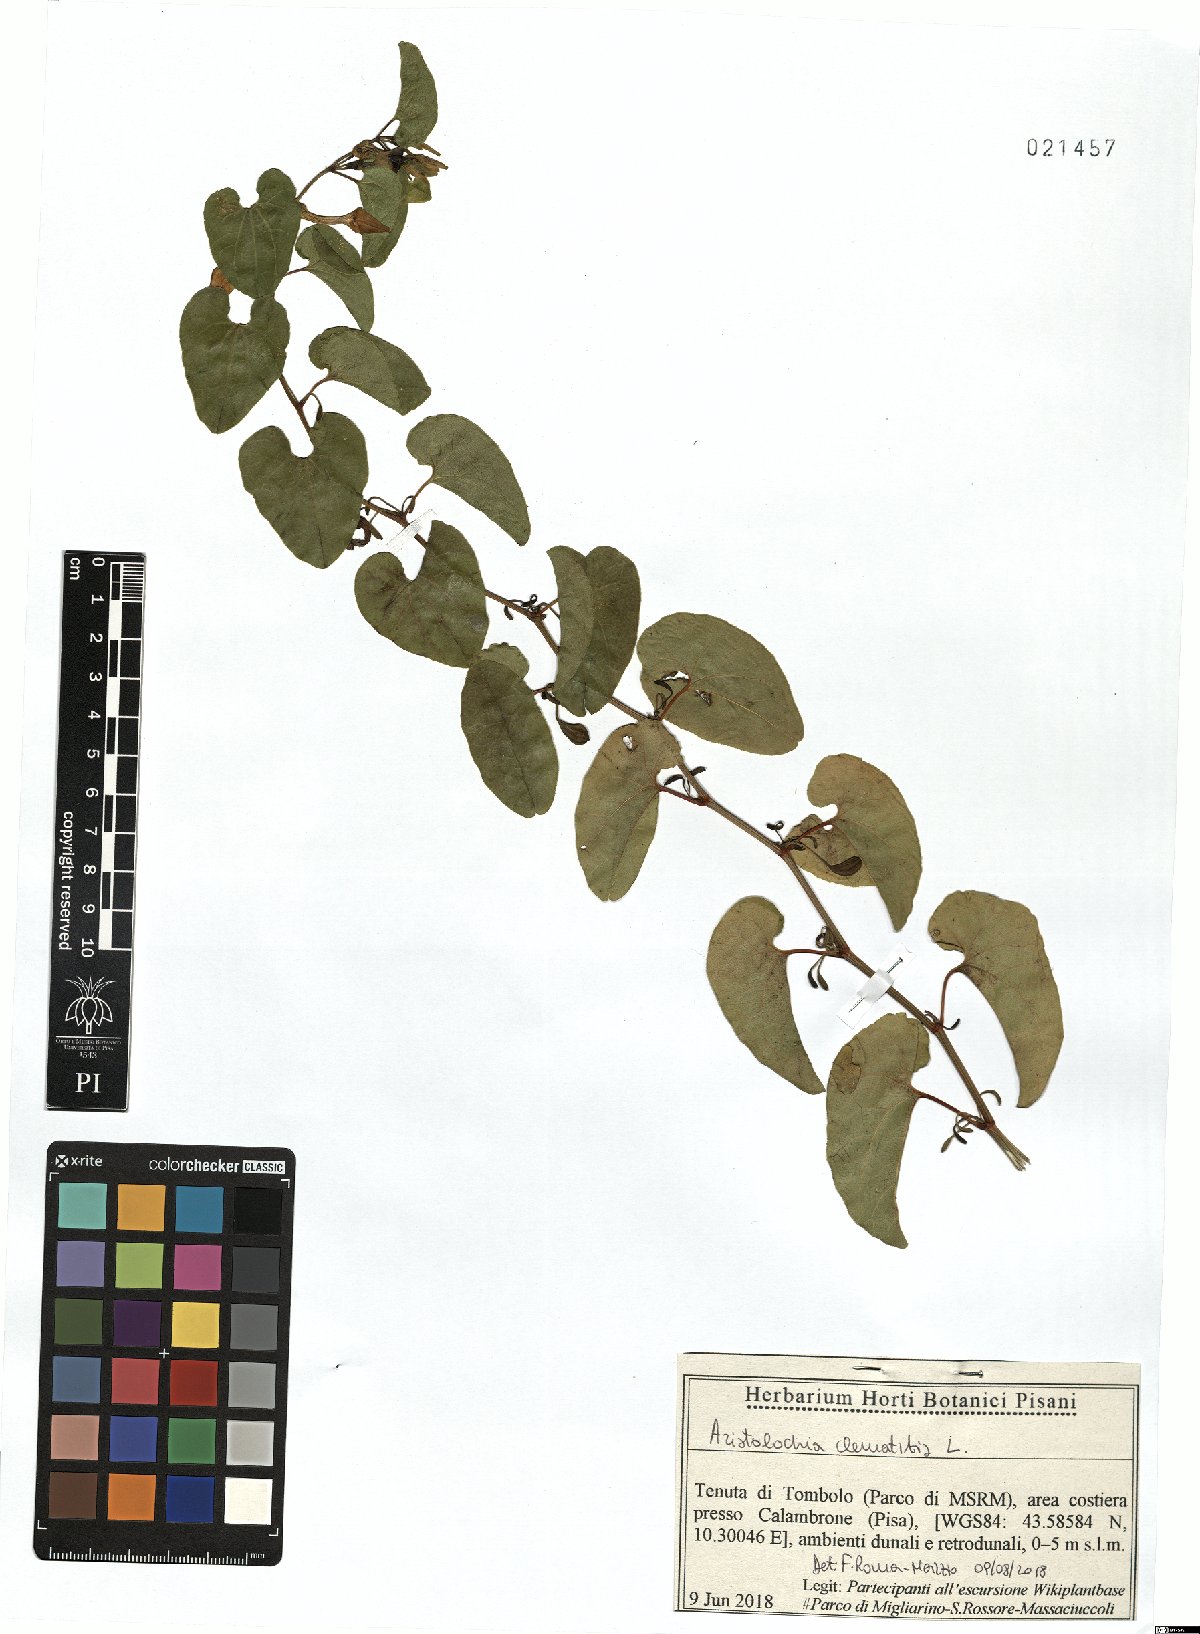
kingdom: Plantae
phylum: Tracheophyta
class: Magnoliopsida
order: Piperales
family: Aristolochiaceae
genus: Aristolochia
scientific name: Aristolochia clematitis
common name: Birthwort
